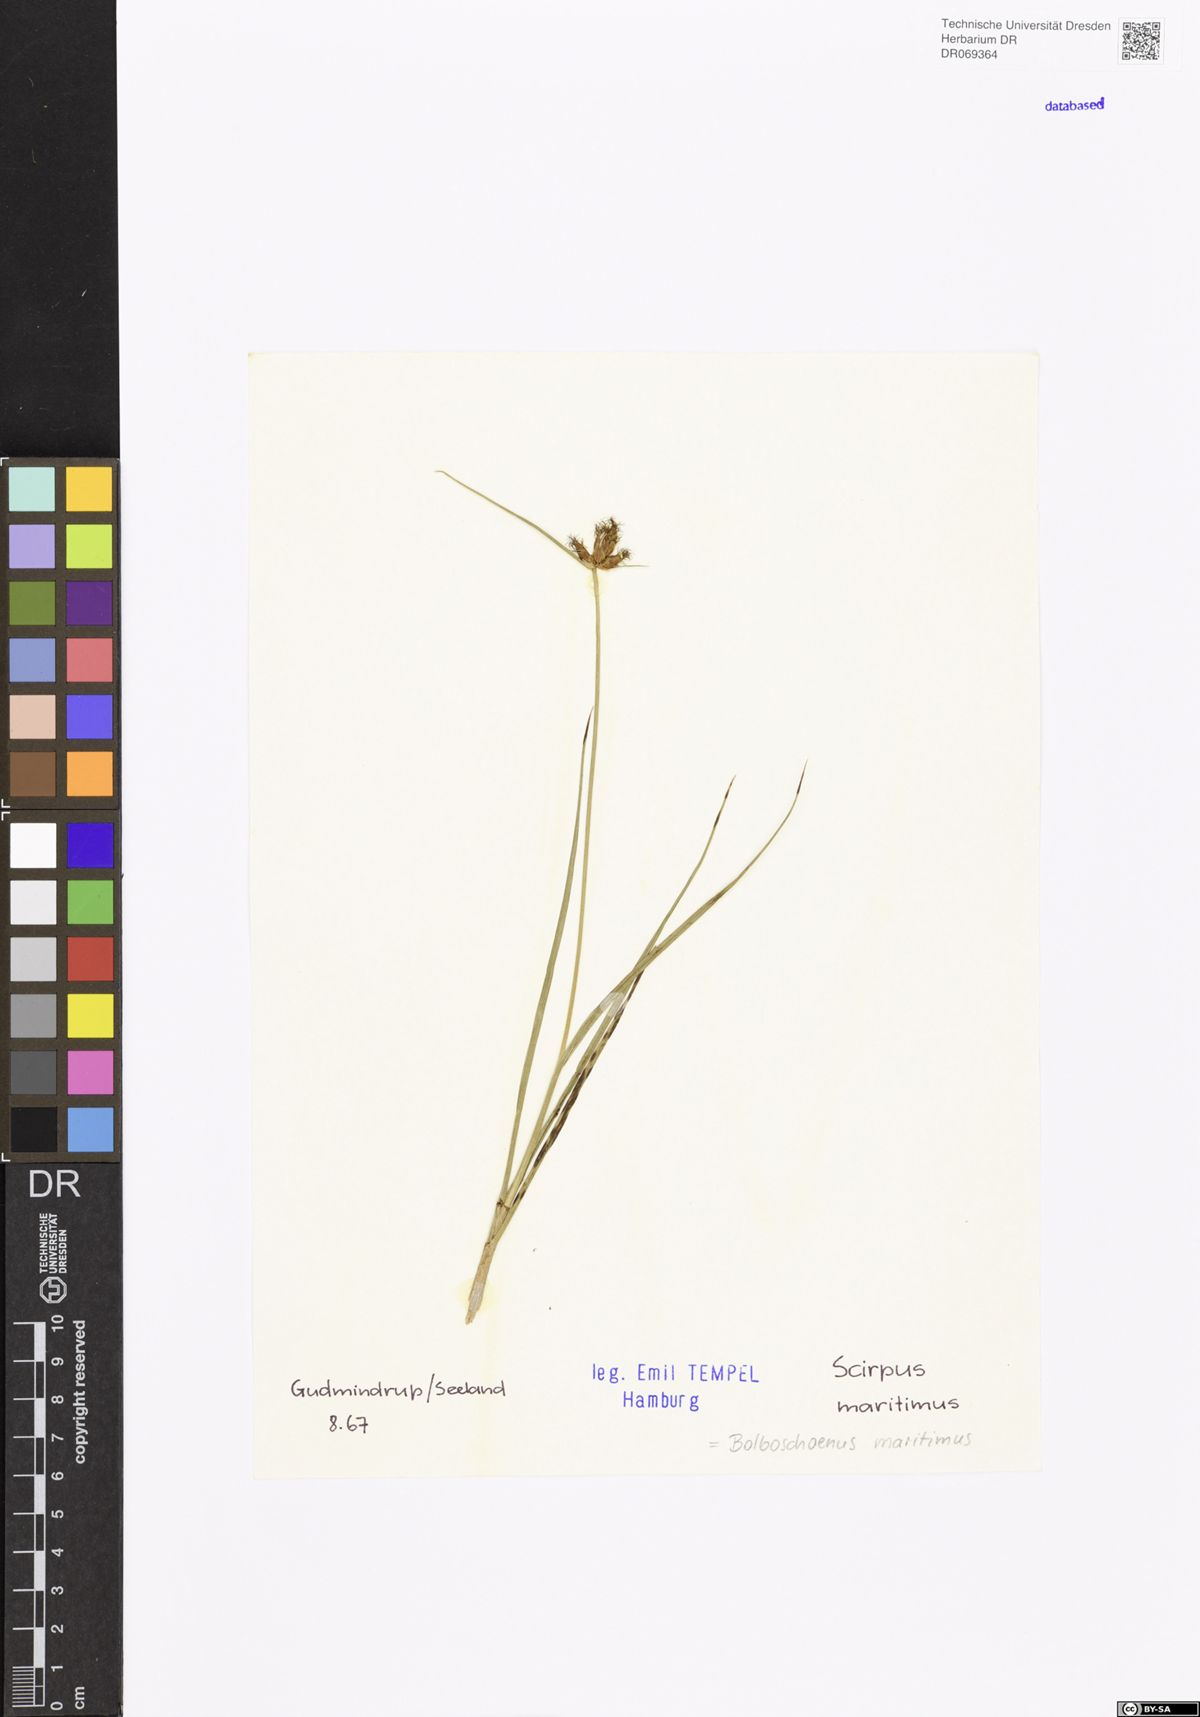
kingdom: Plantae
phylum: Tracheophyta
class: Liliopsida
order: Poales
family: Cyperaceae
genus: Bolboschoenus
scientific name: Bolboschoenus maritimus
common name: Sea club-rush
